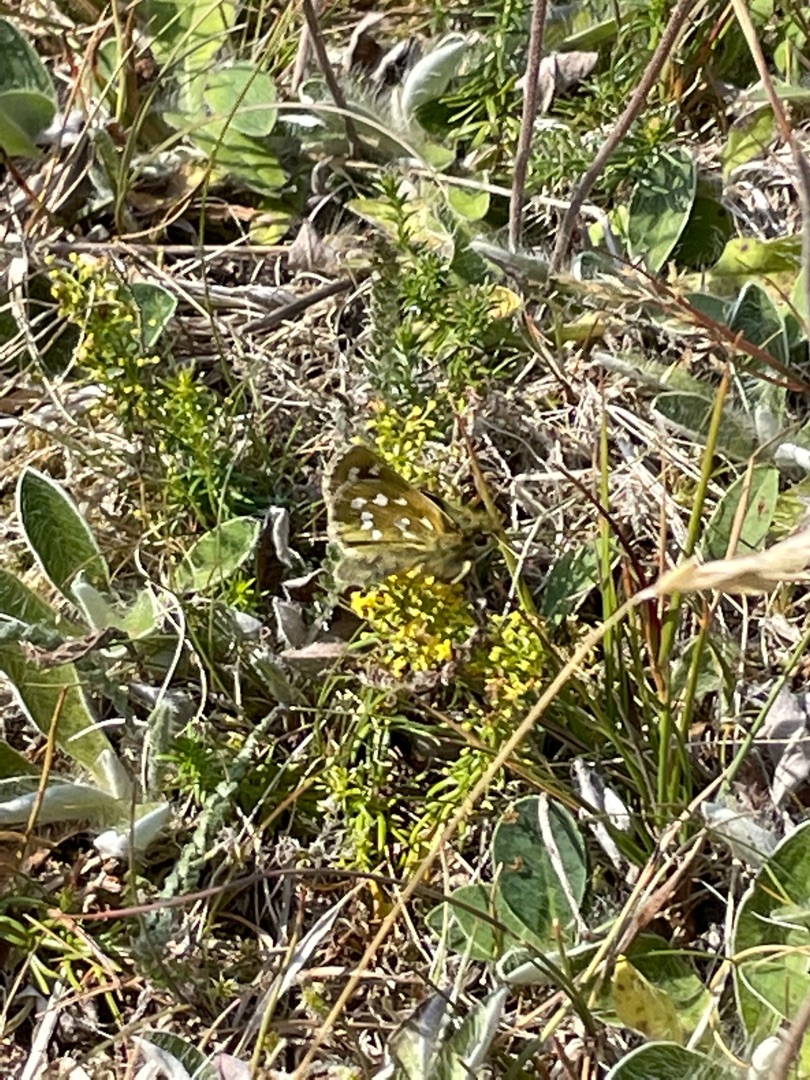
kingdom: Animalia
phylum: Arthropoda
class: Insecta
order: Lepidoptera
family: Hesperiidae
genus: Hesperia
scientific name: Hesperia comma
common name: Kommabredpande
